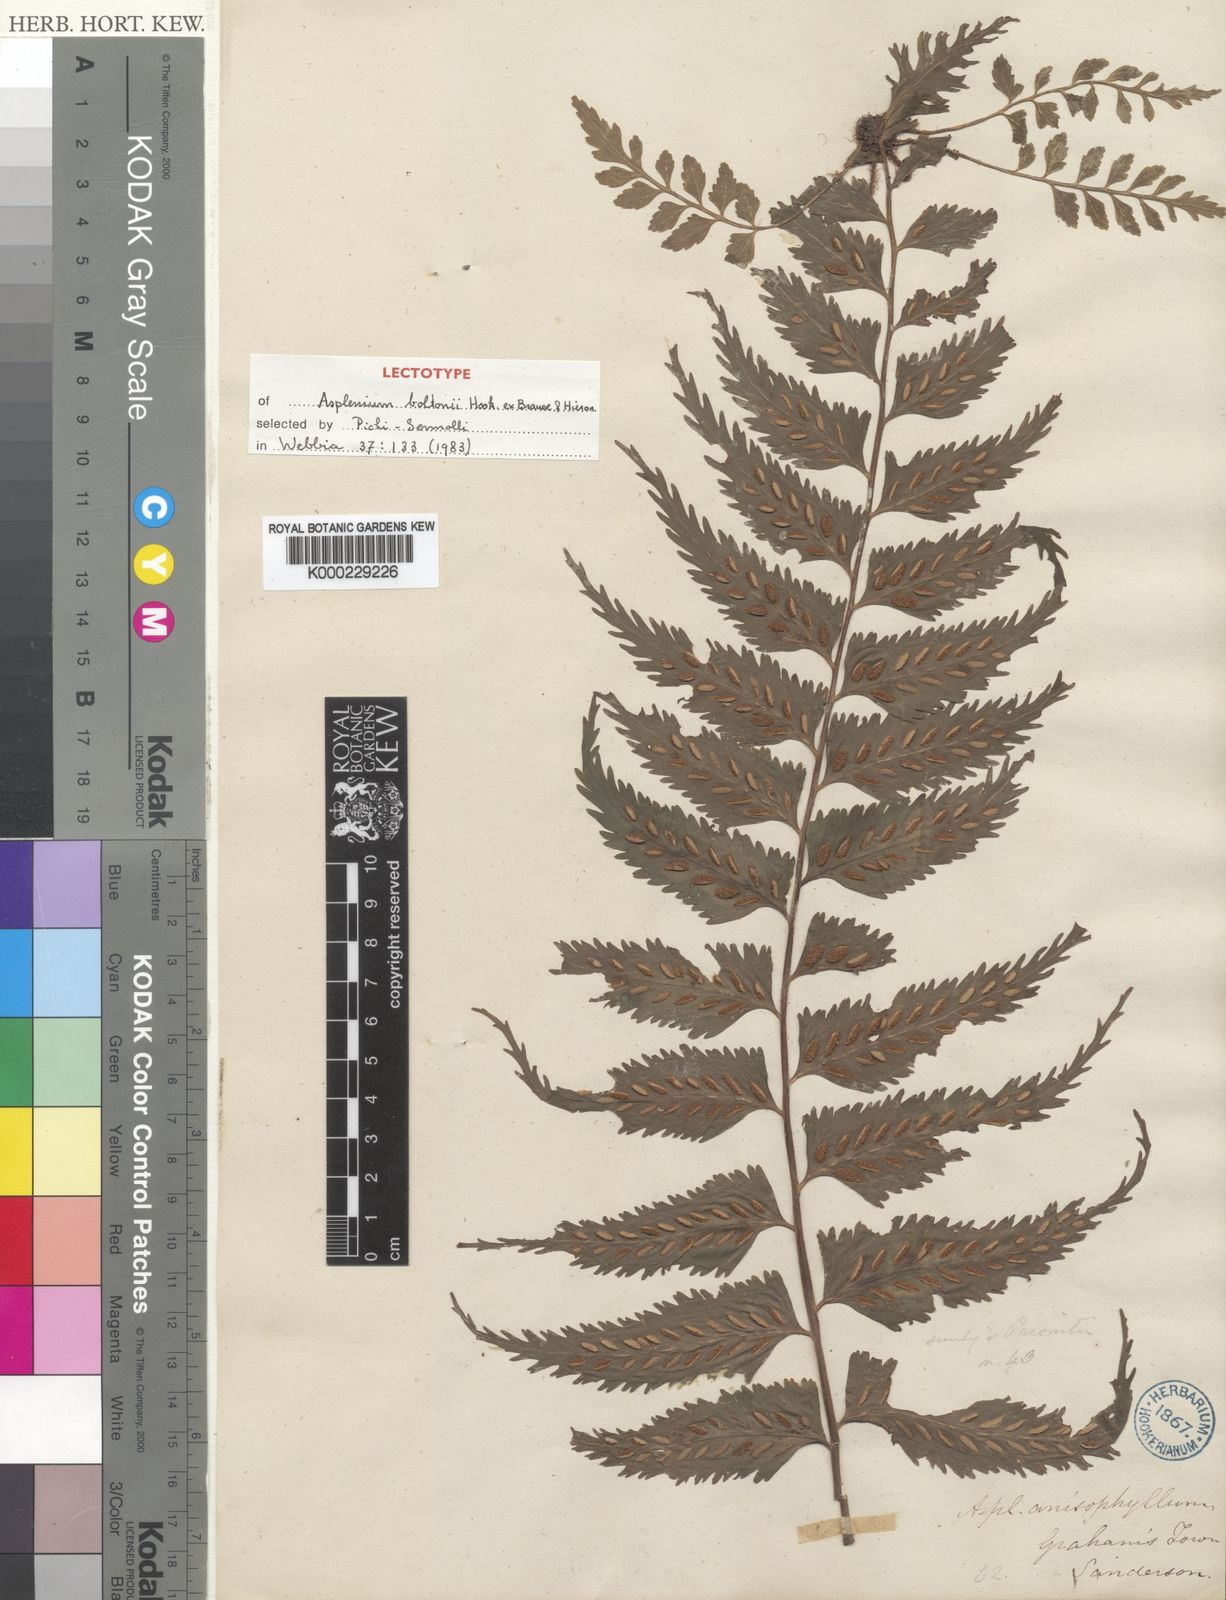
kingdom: Plantae
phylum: Tracheophyta
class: Polypodiopsida
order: Polypodiales
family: Aspleniaceae
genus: Asplenium
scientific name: Asplenium anisophyllum
